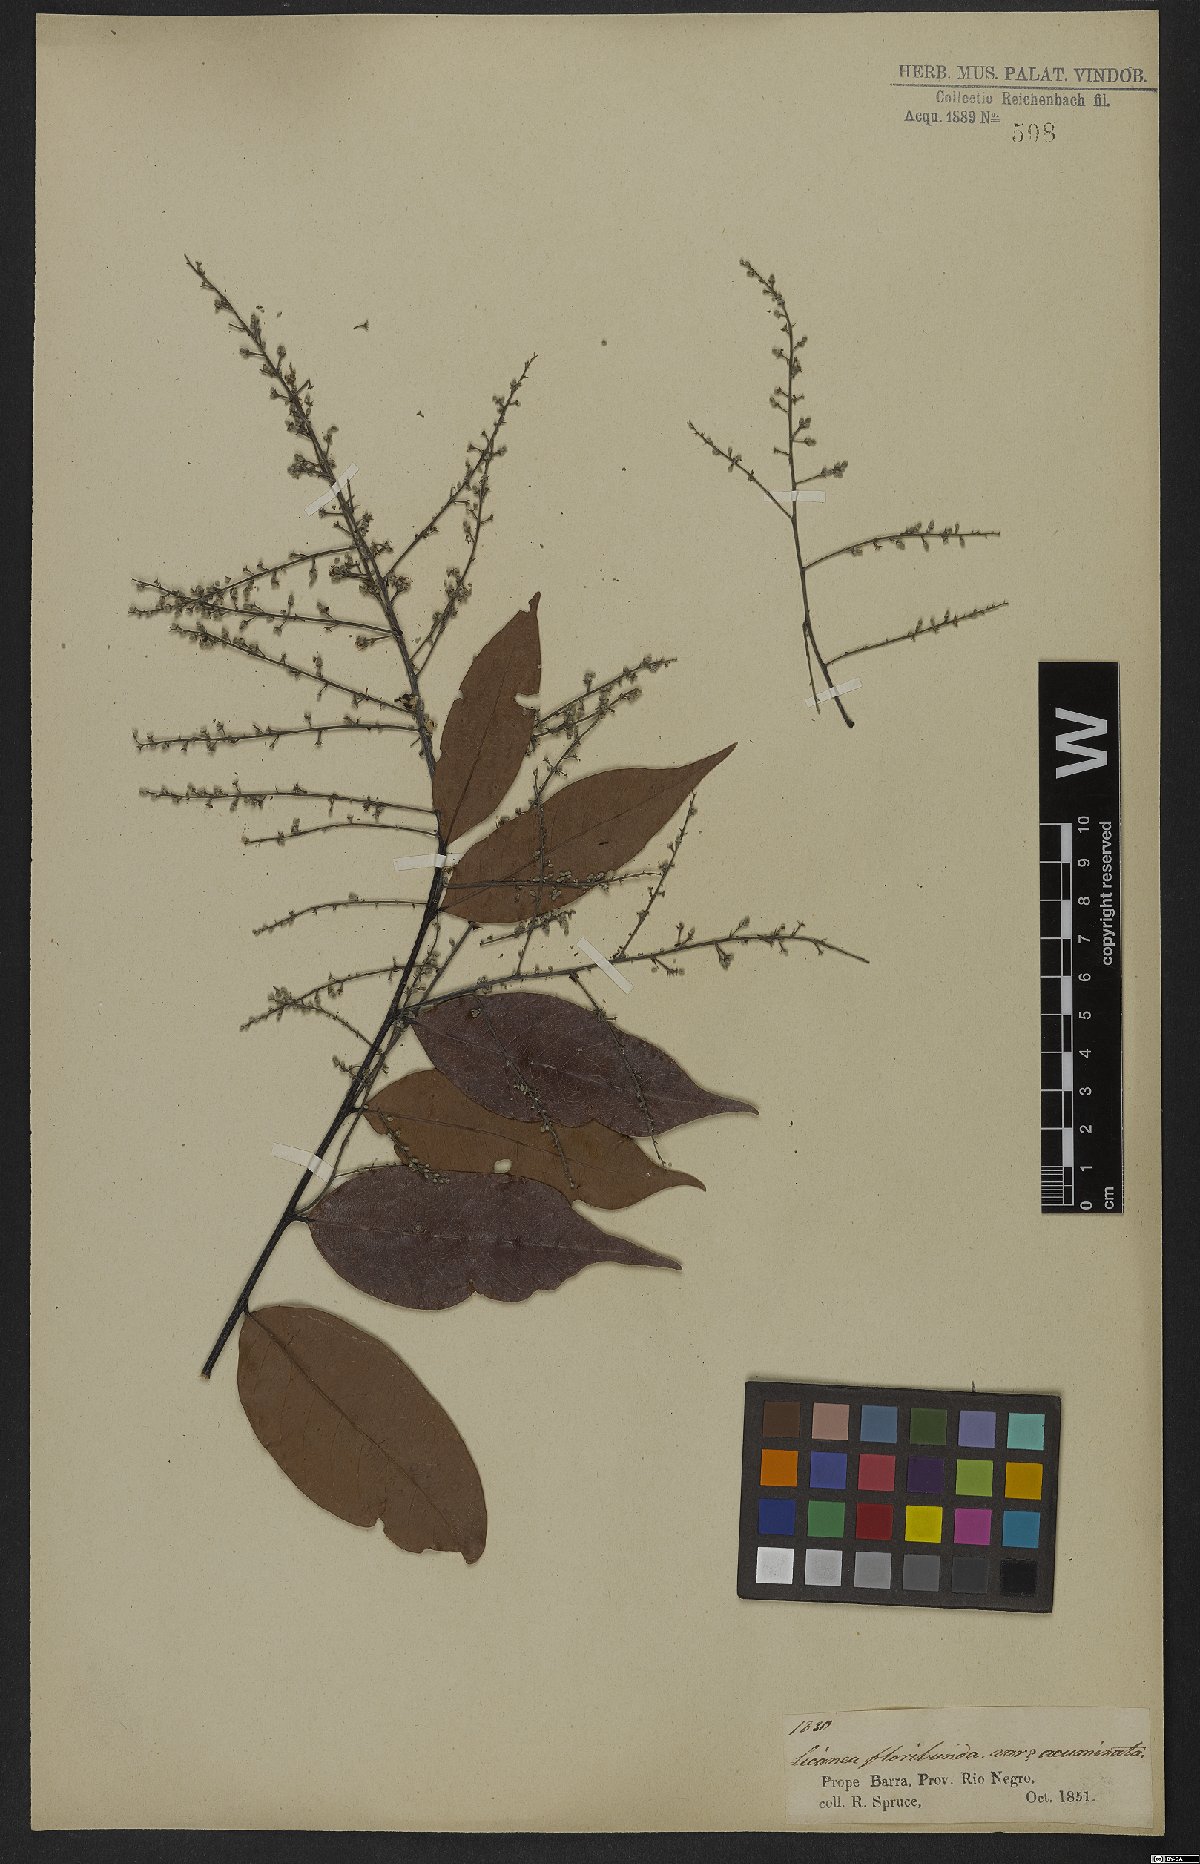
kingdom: Plantae
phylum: Tracheophyta
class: Magnoliopsida
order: Malpighiales
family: Chrysobalanaceae
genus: Leptobalanus
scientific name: Leptobalanus apetalus
